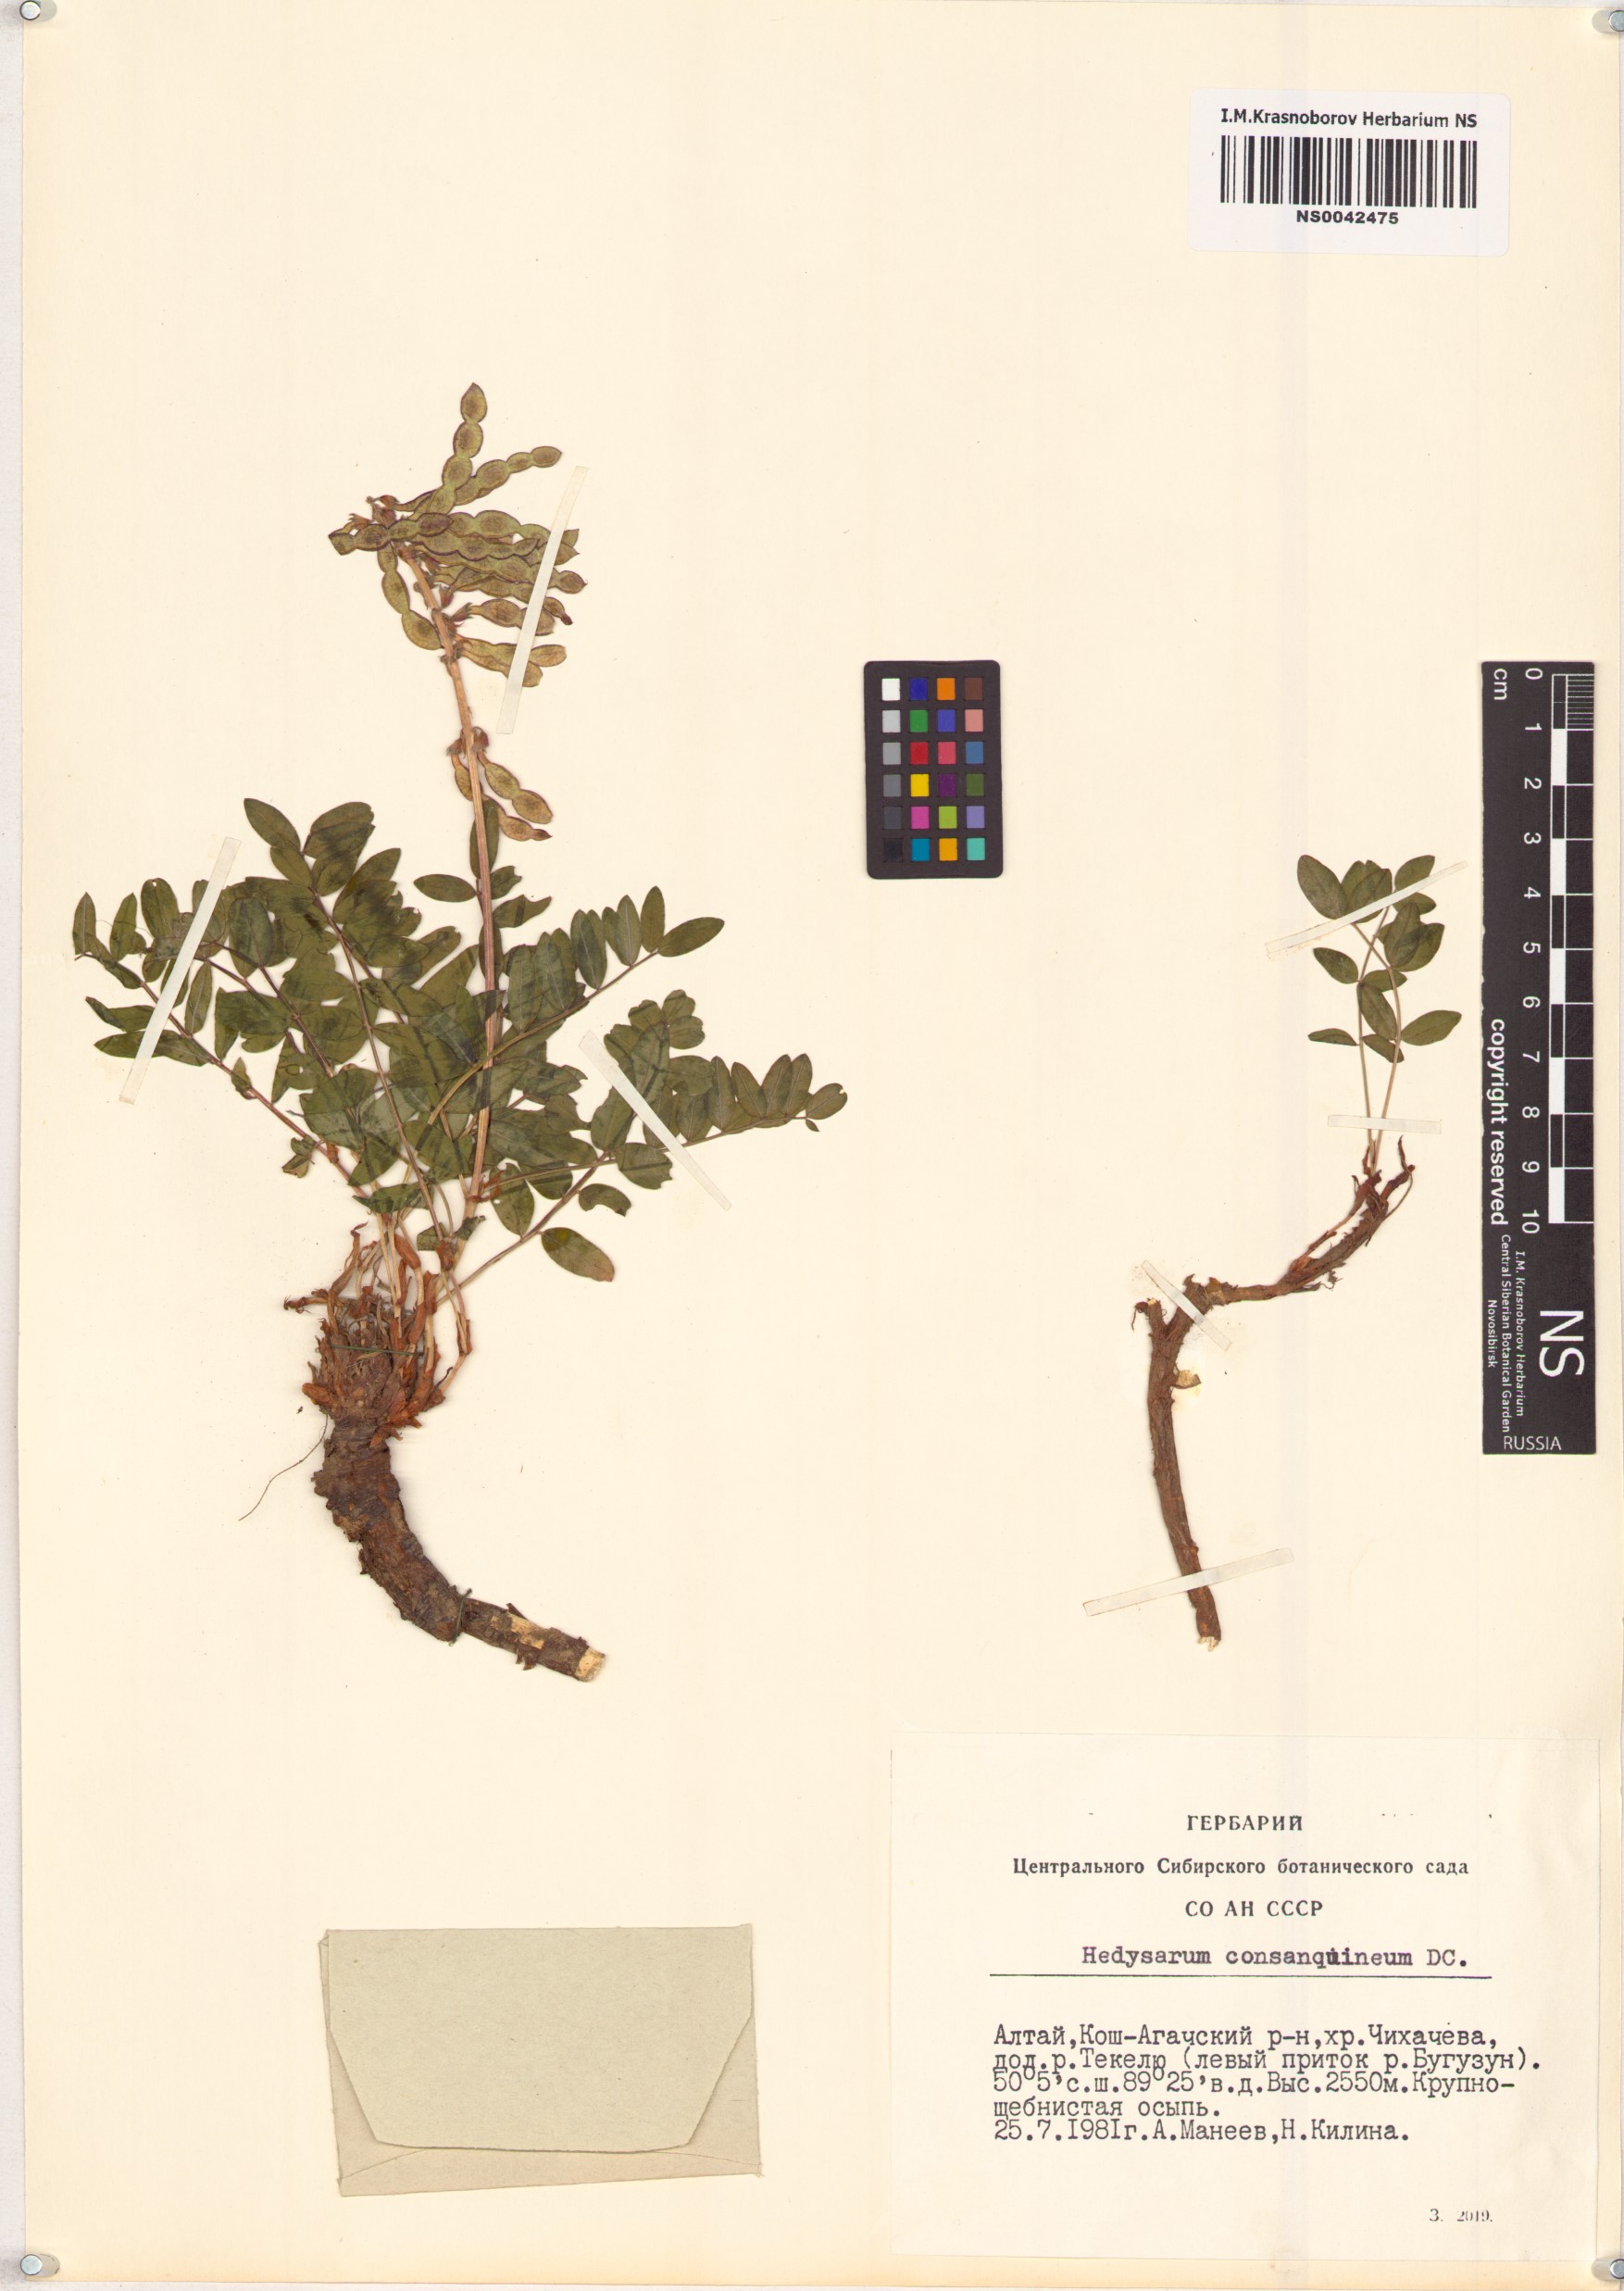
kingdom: Plantae
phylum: Tracheophyta
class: Magnoliopsida
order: Fabales
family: Fabaceae
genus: Hedysarum
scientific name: Hedysarum consanguineum
